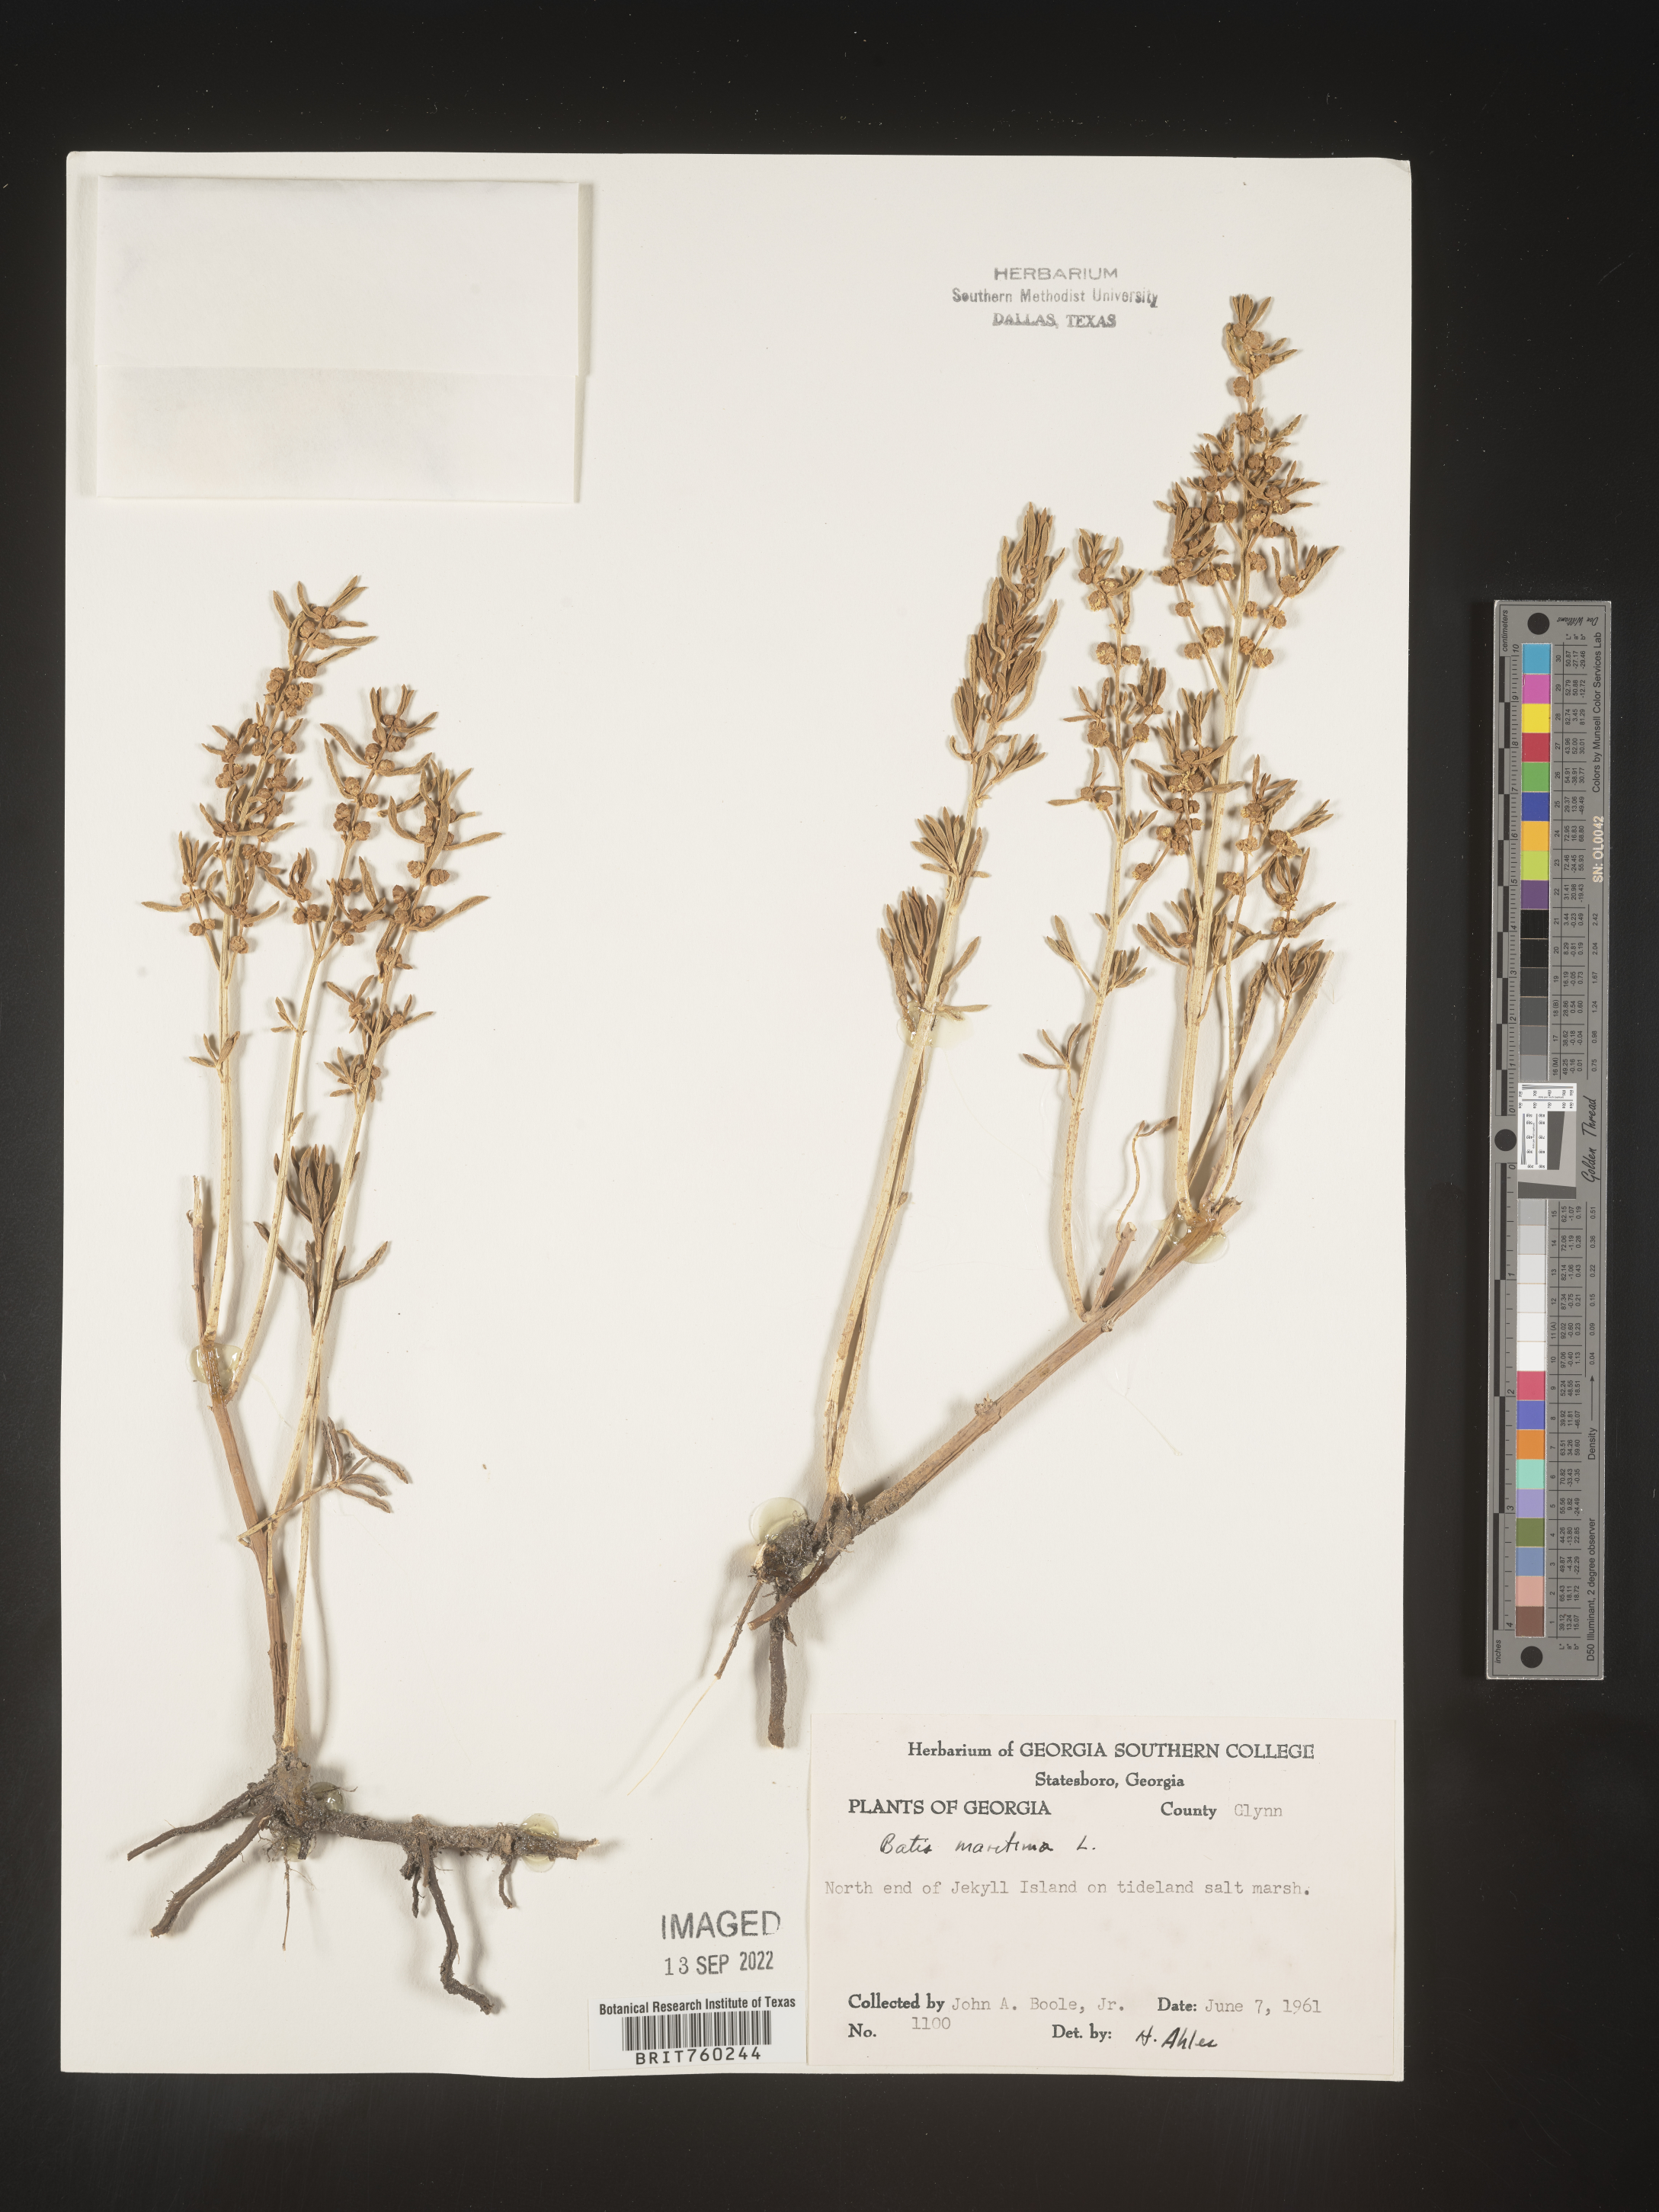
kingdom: Plantae
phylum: Tracheophyta
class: Magnoliopsida
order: Brassicales
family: Bataceae
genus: Batis
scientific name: Batis maritima
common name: Turtleweed
